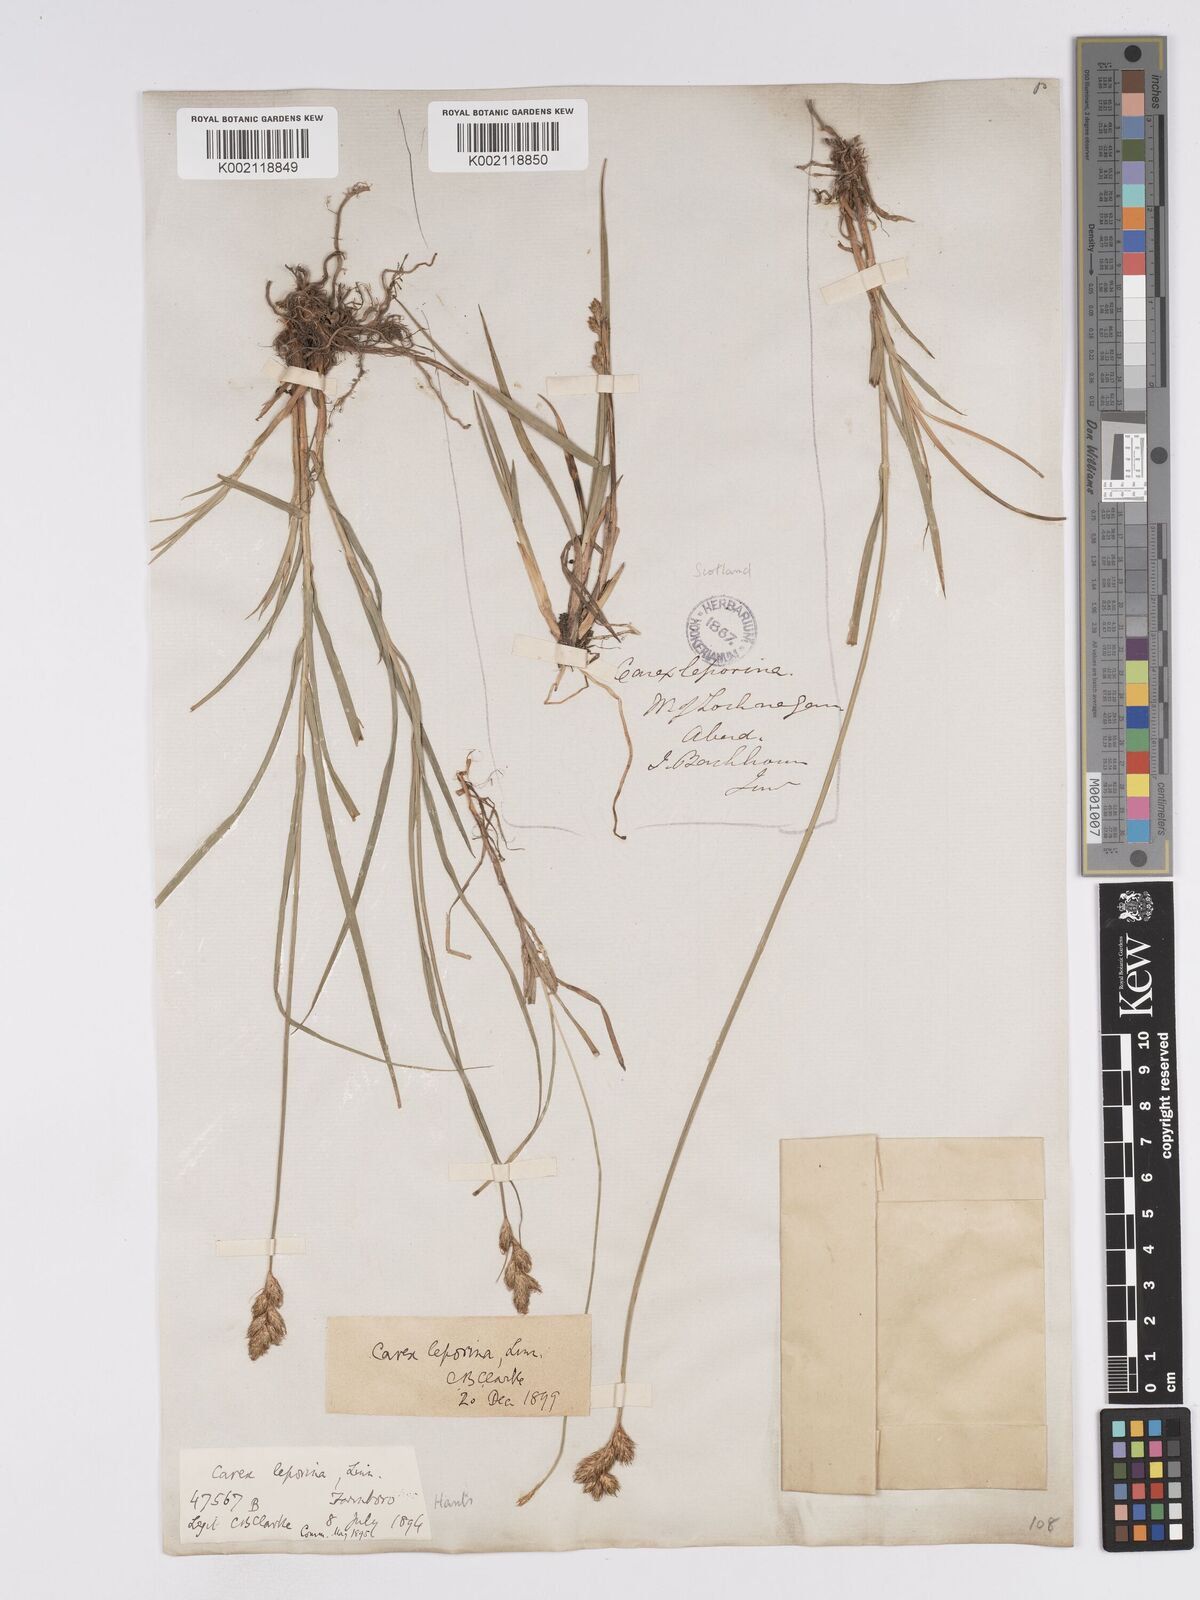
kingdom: Plantae
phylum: Tracheophyta
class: Liliopsida
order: Poales
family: Cyperaceae
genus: Carex
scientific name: Carex leporina
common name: Oval sedge
